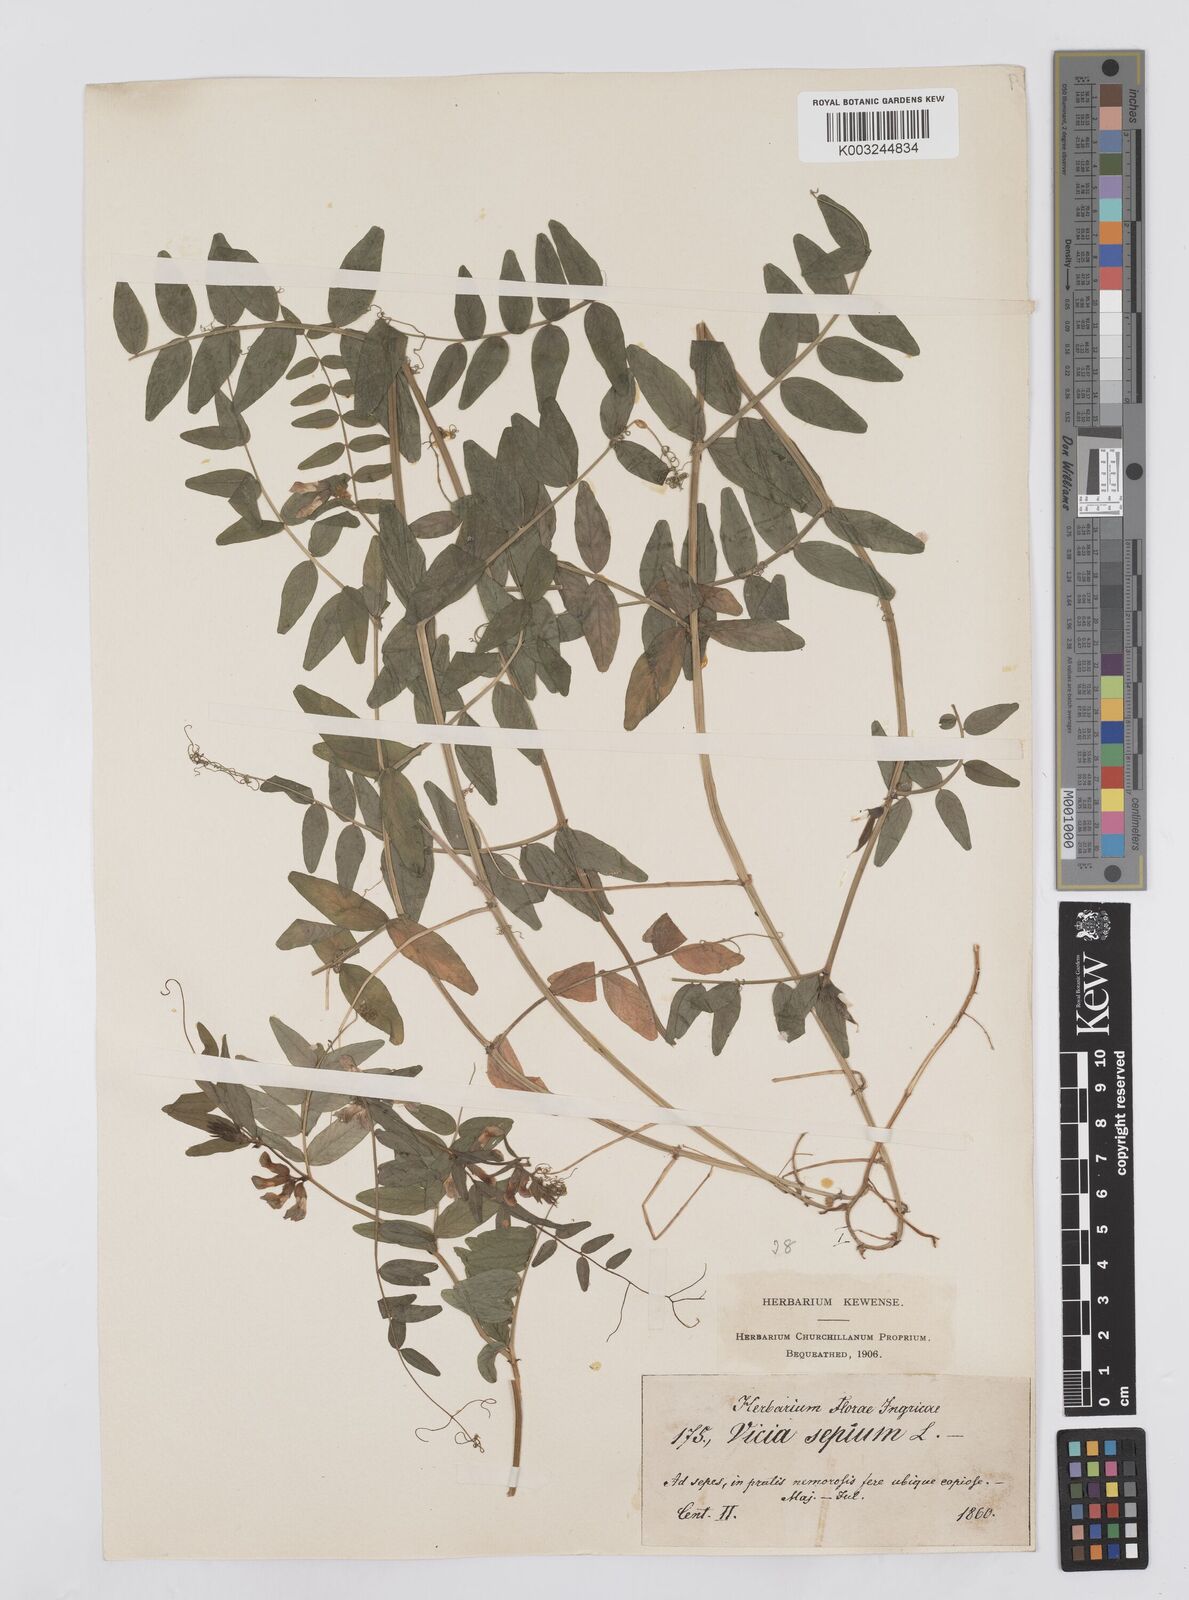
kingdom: Plantae
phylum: Tracheophyta
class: Magnoliopsida
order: Fabales
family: Fabaceae
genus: Vicia
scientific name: Vicia sepium
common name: Bush vetch
